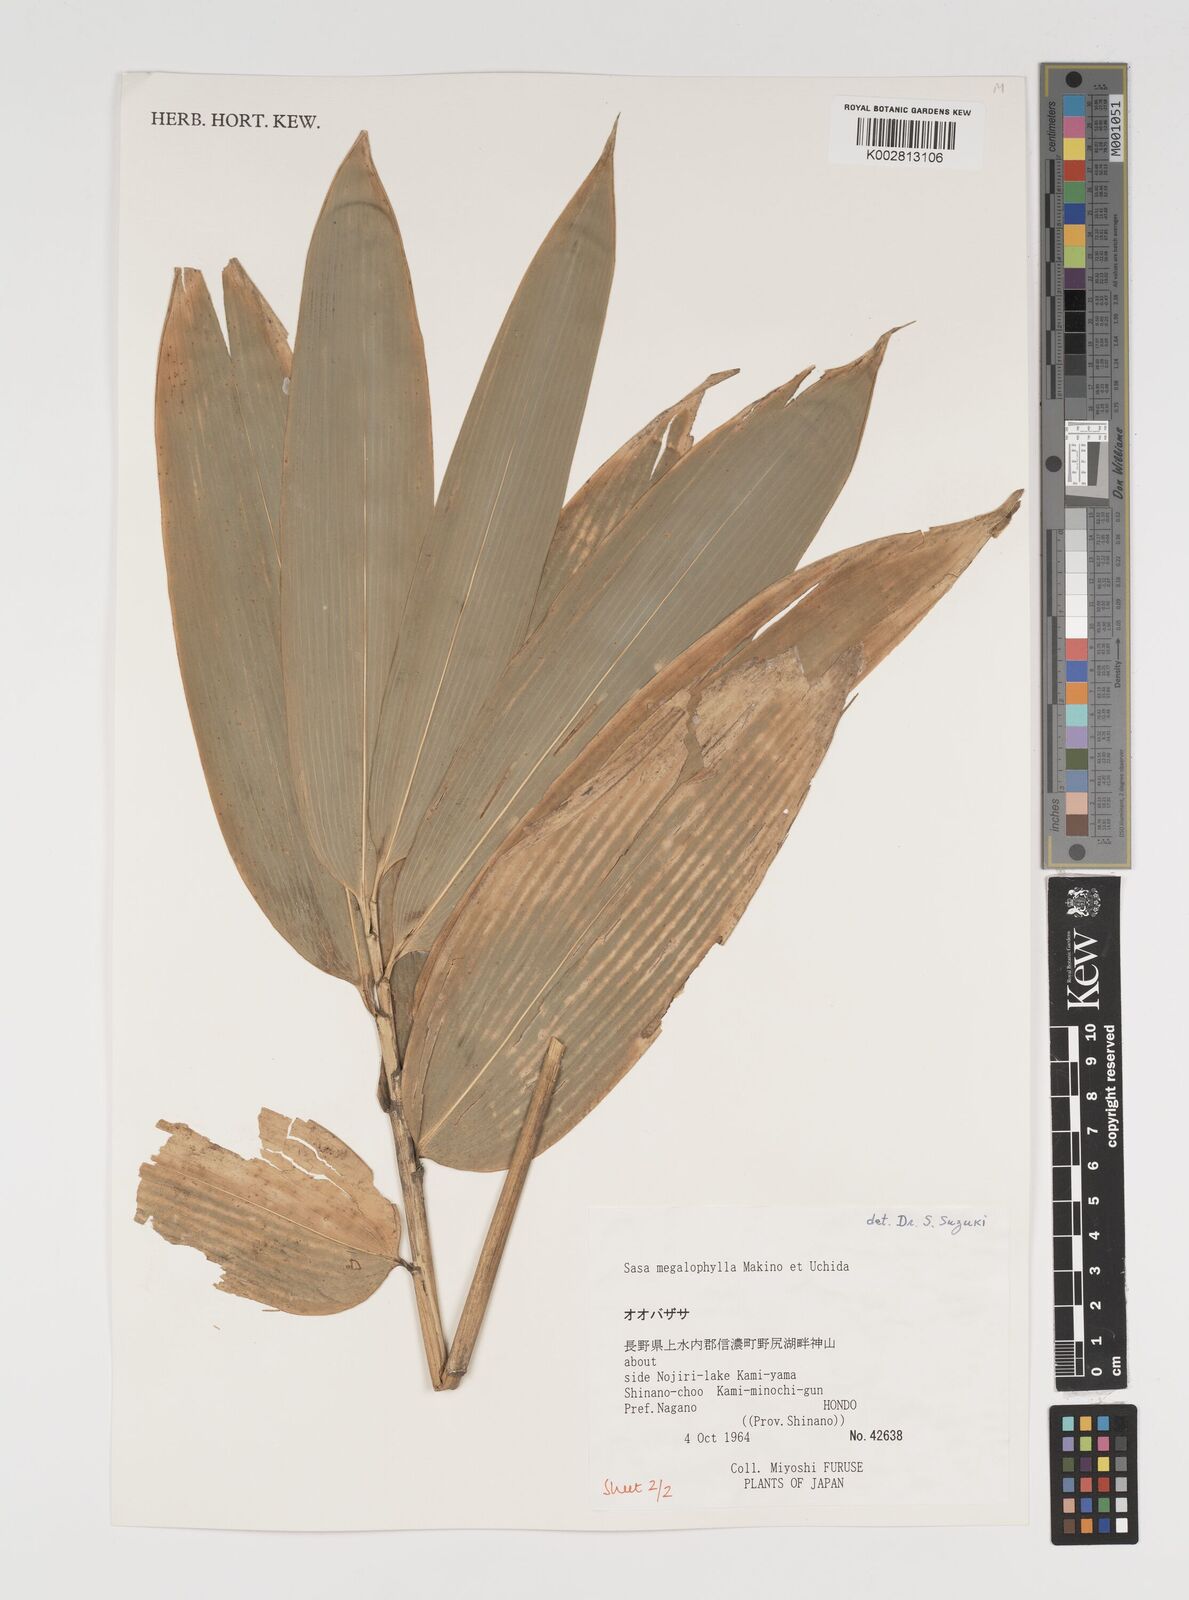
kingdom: Plantae
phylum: Tracheophyta
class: Liliopsida
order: Poales
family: Poaceae
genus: Sasa
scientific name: Sasa megalophylla
